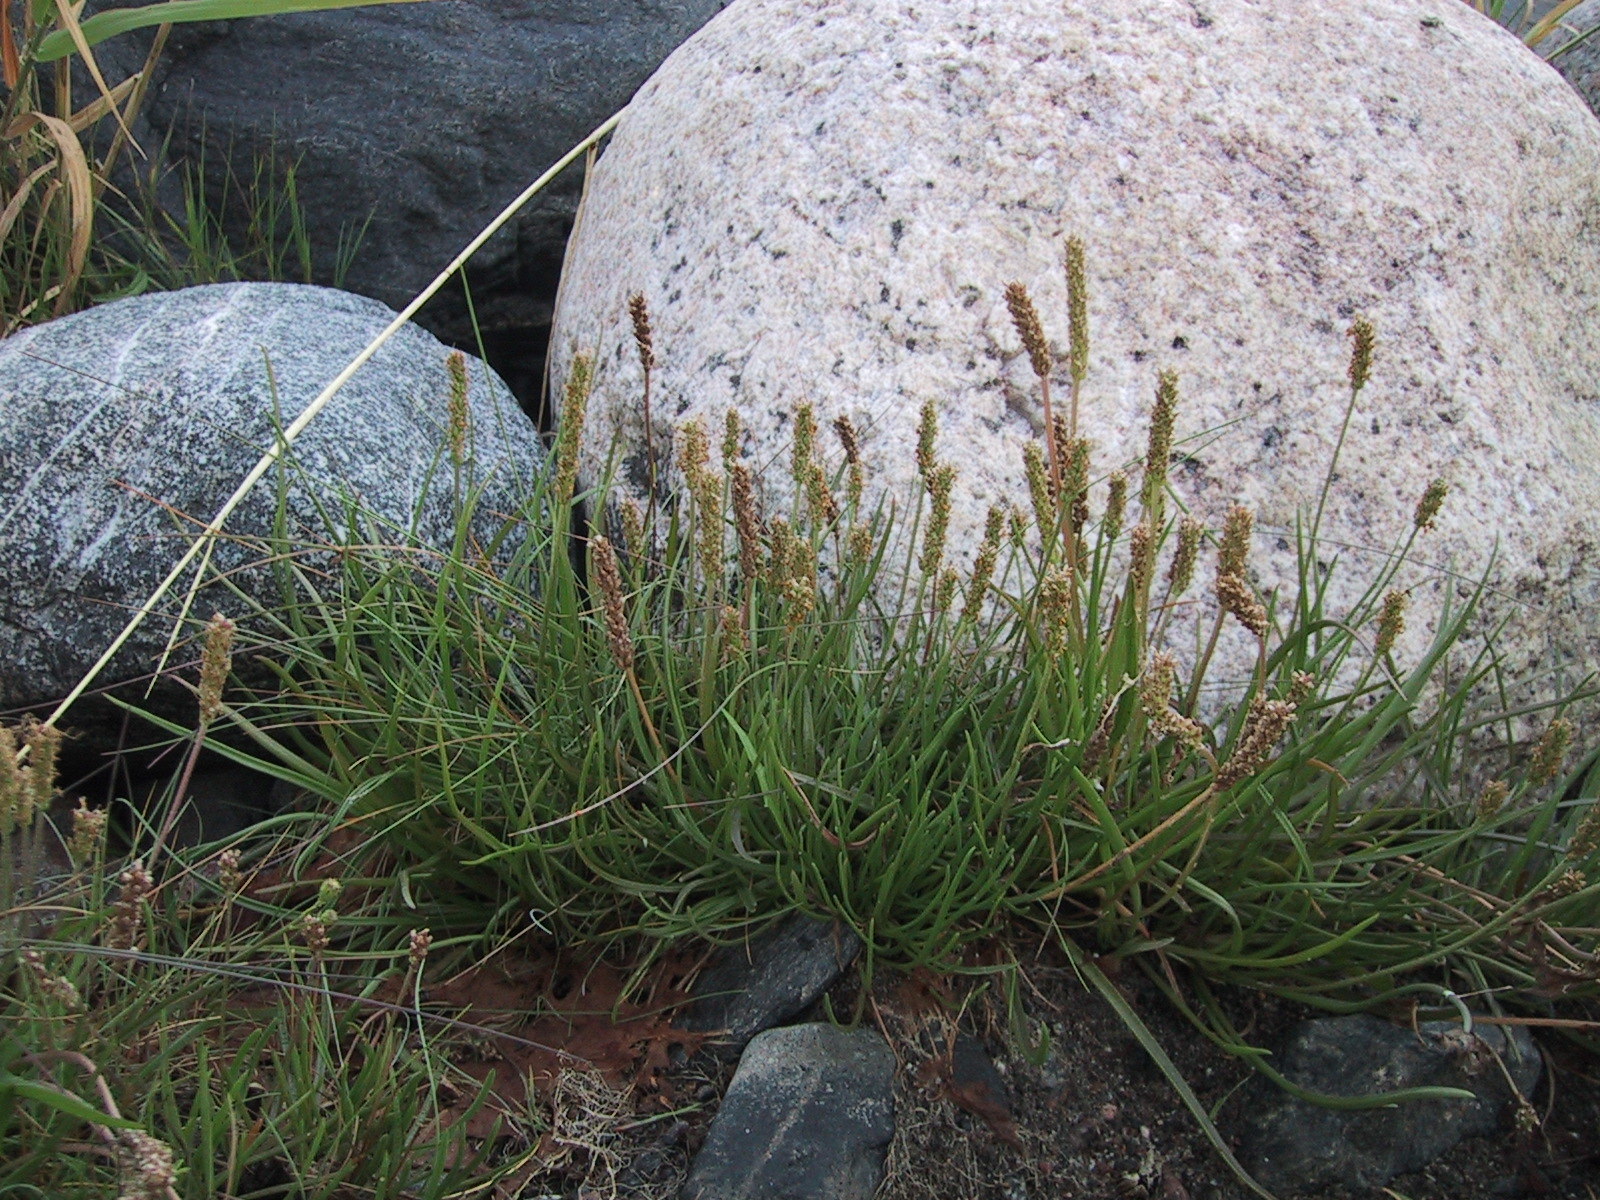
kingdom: Plantae
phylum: Tracheophyta
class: Magnoliopsida
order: Lamiales
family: Plantaginaceae
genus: Plantago
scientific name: Plantago maritima
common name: Sea plantain
